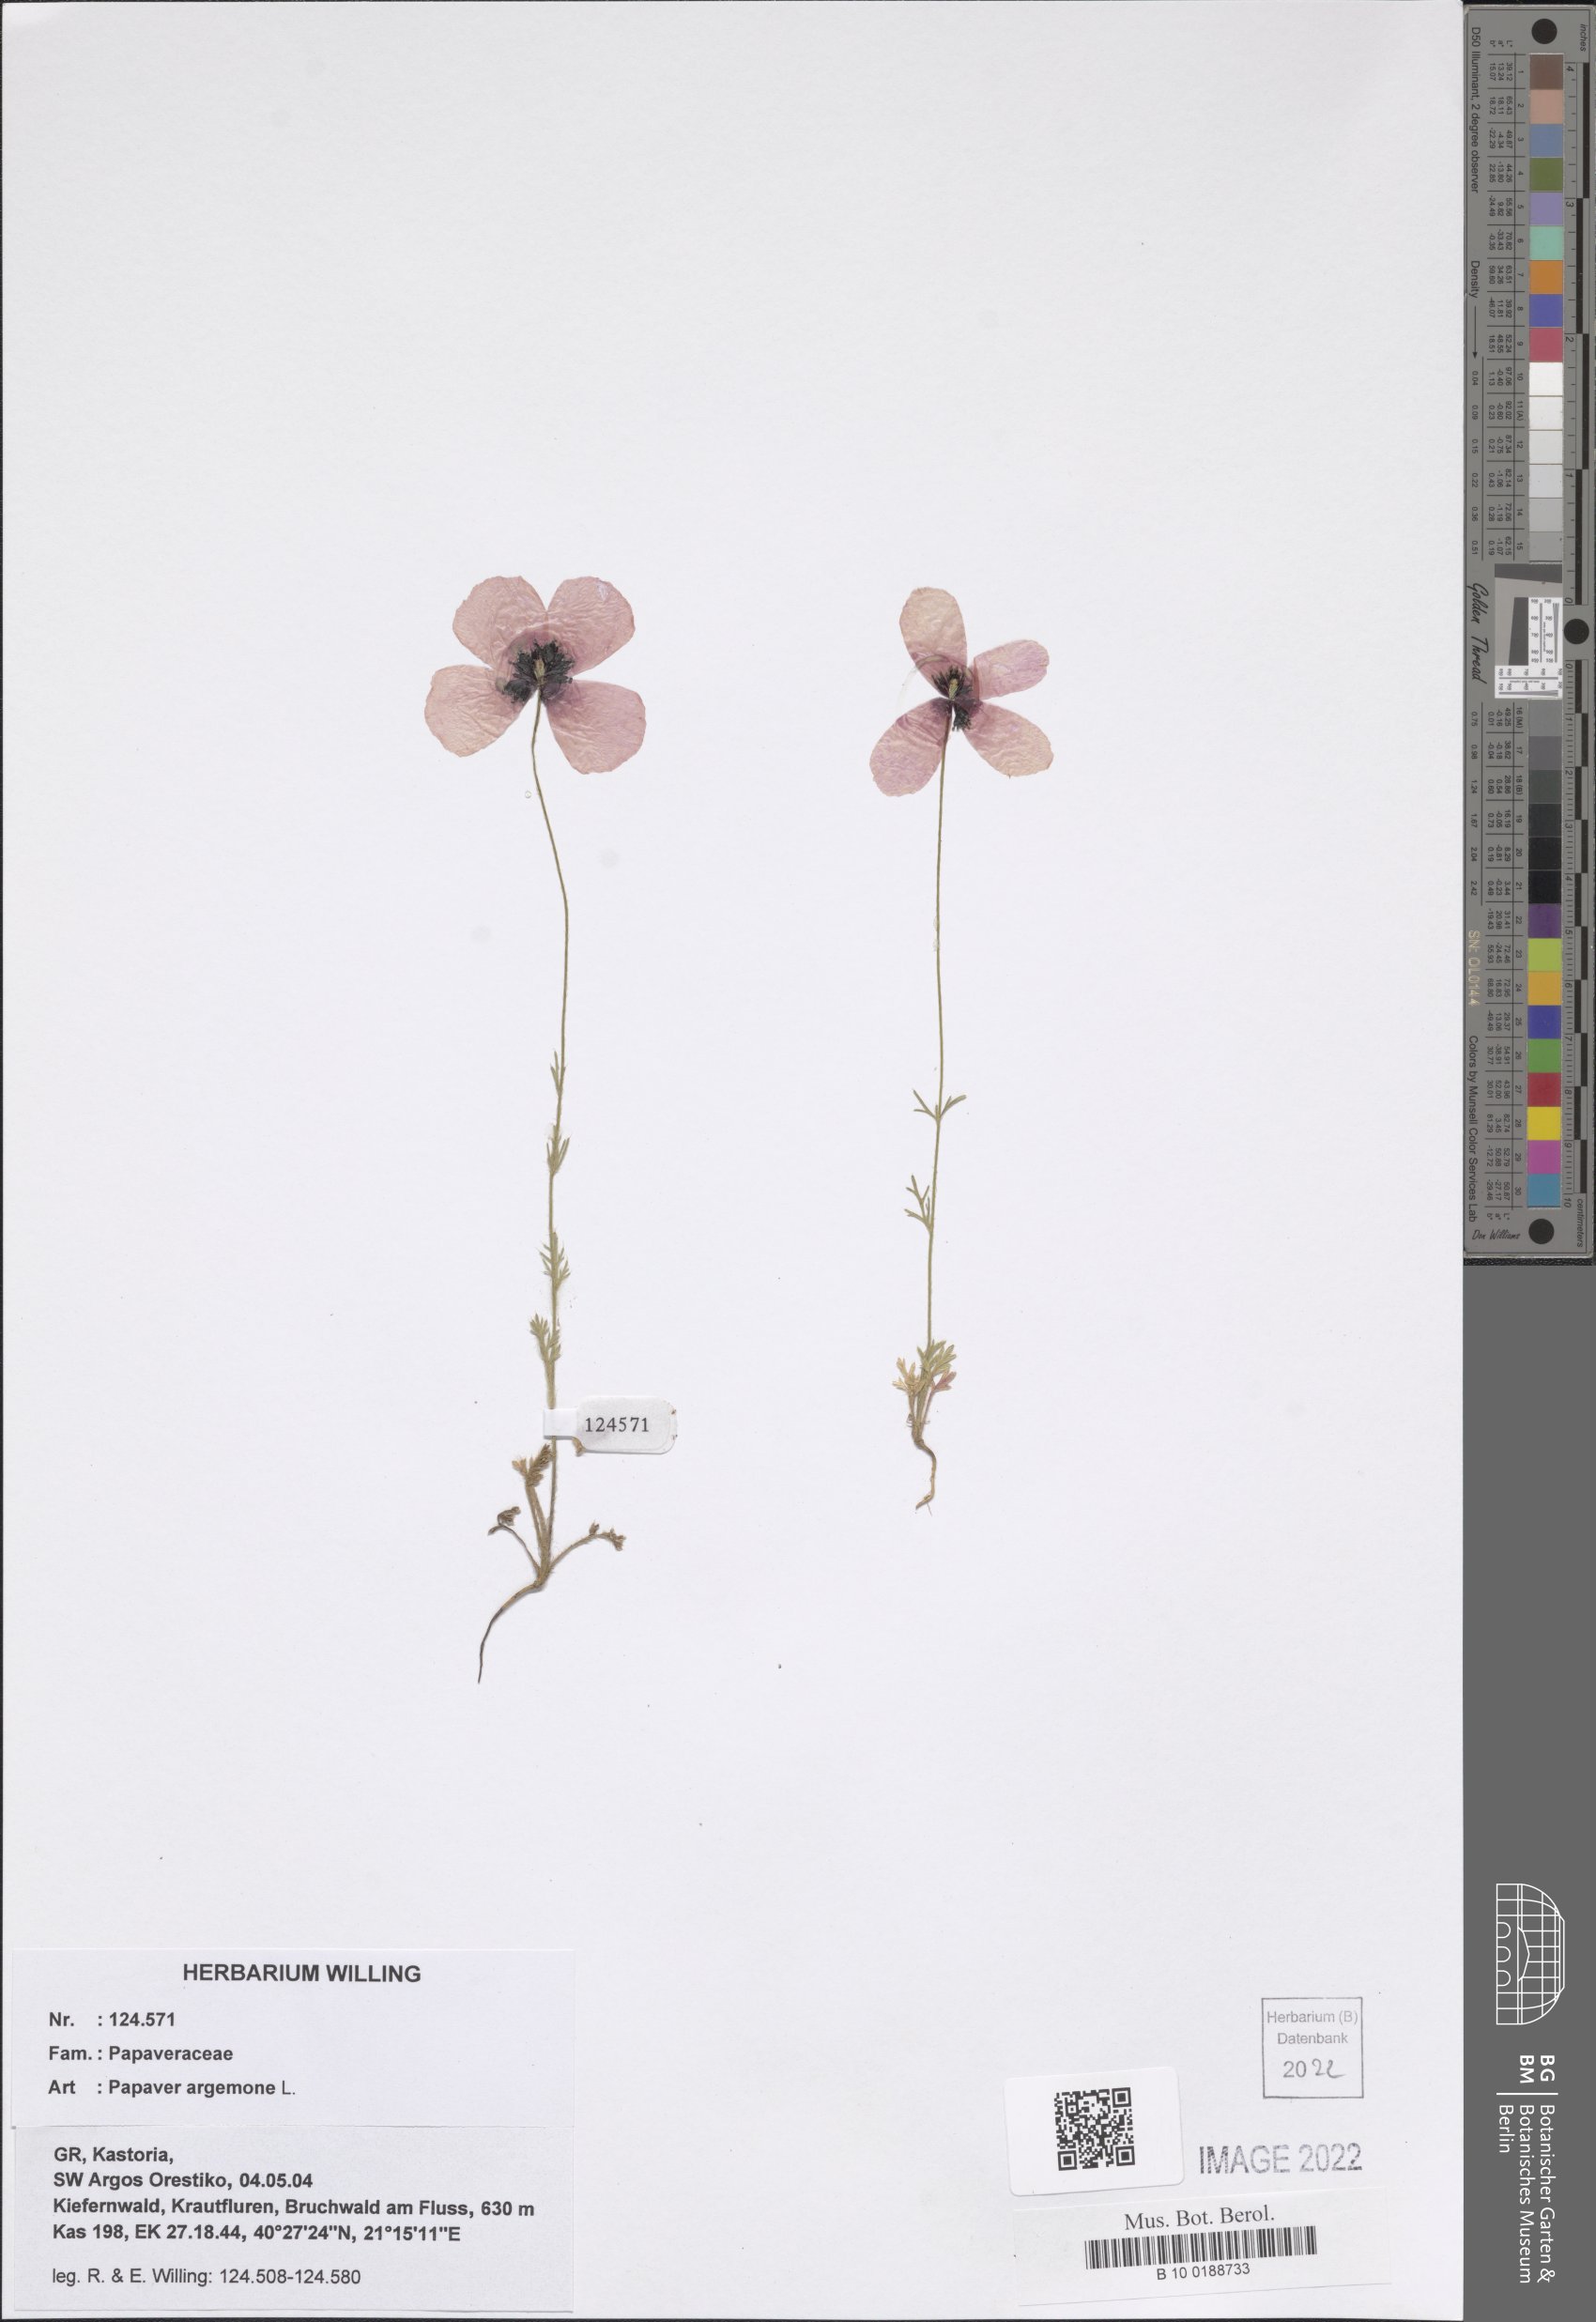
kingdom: Plantae
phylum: Tracheophyta
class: Magnoliopsida
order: Ranunculales
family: Papaveraceae
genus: Roemeria
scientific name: Roemeria argemone
